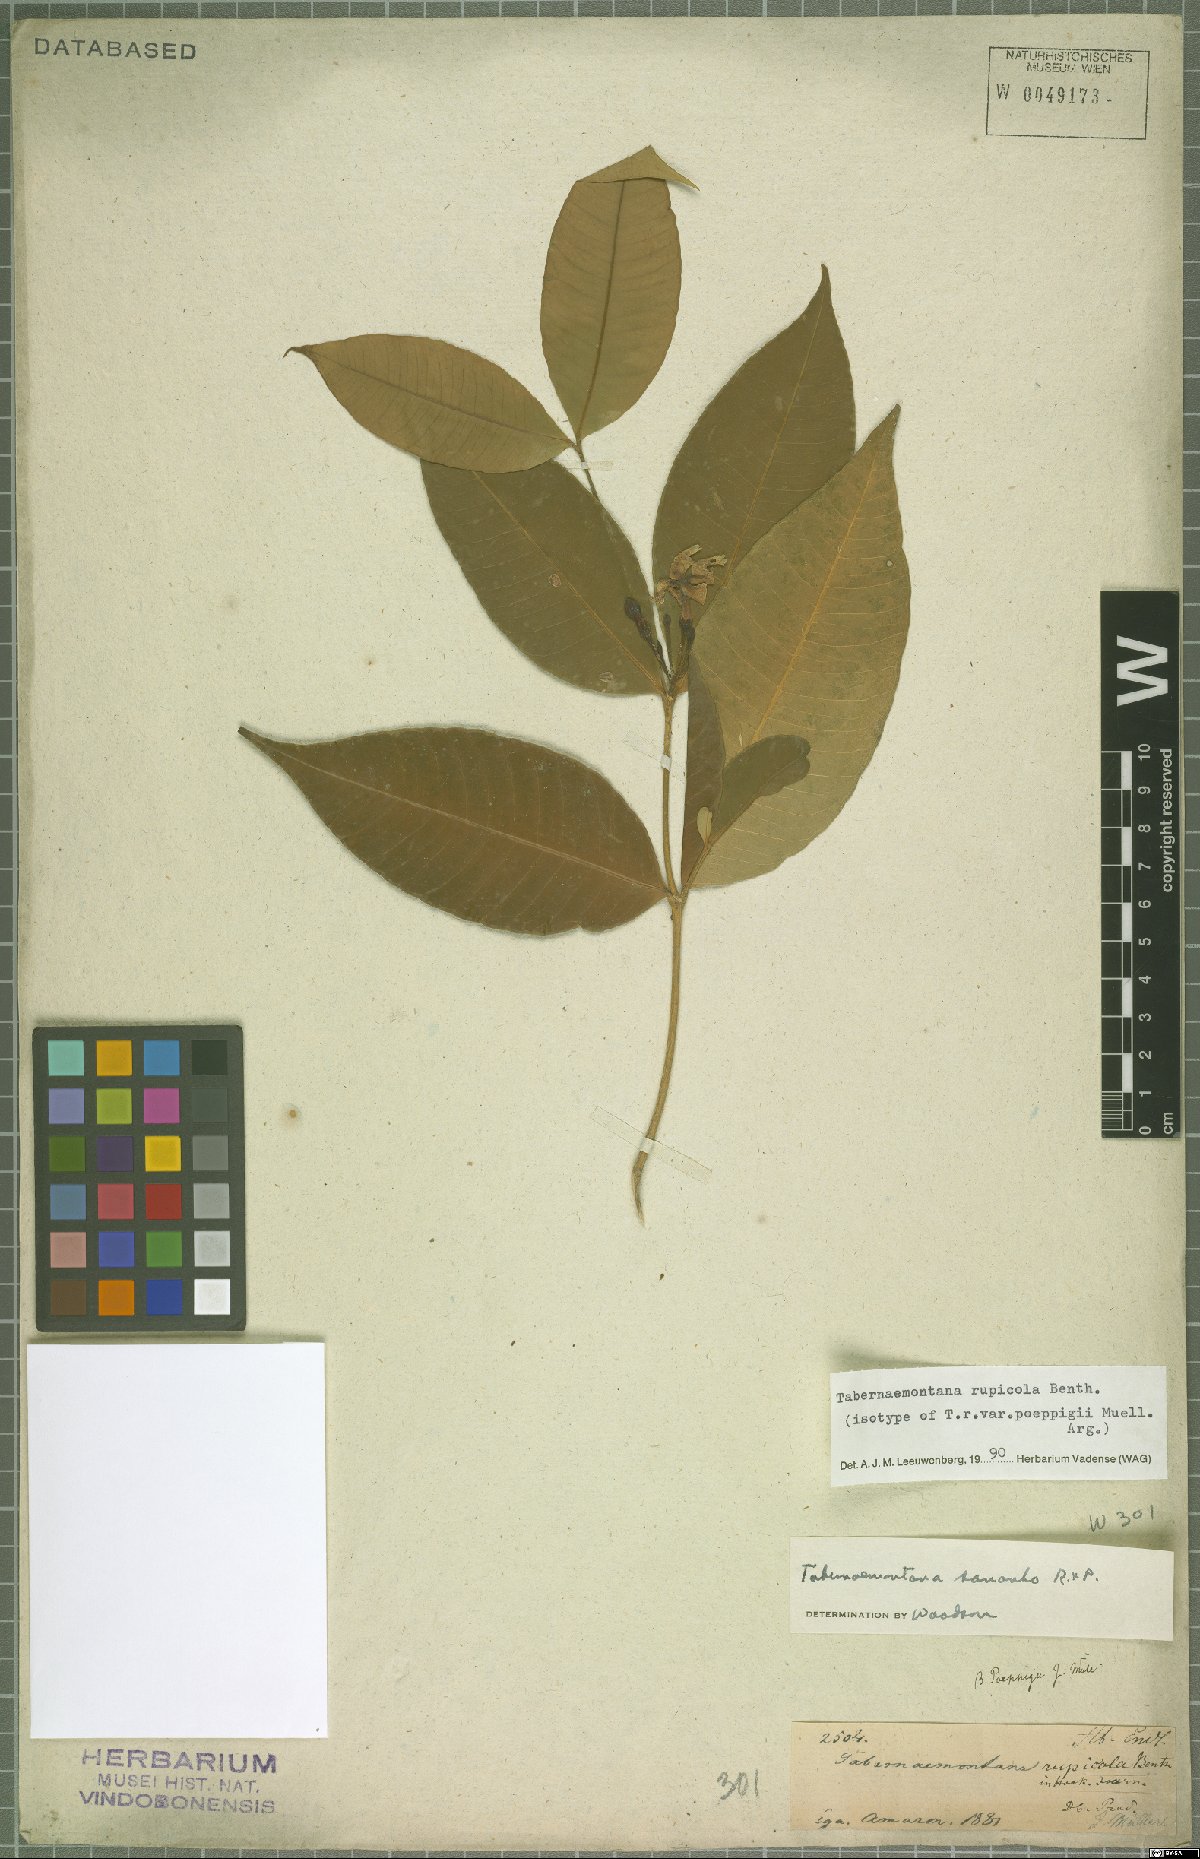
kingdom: Plantae
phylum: Tracheophyta
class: Magnoliopsida
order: Gentianales
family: Apocynaceae
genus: Tabernaemontana
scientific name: Tabernaemontana rupicola
